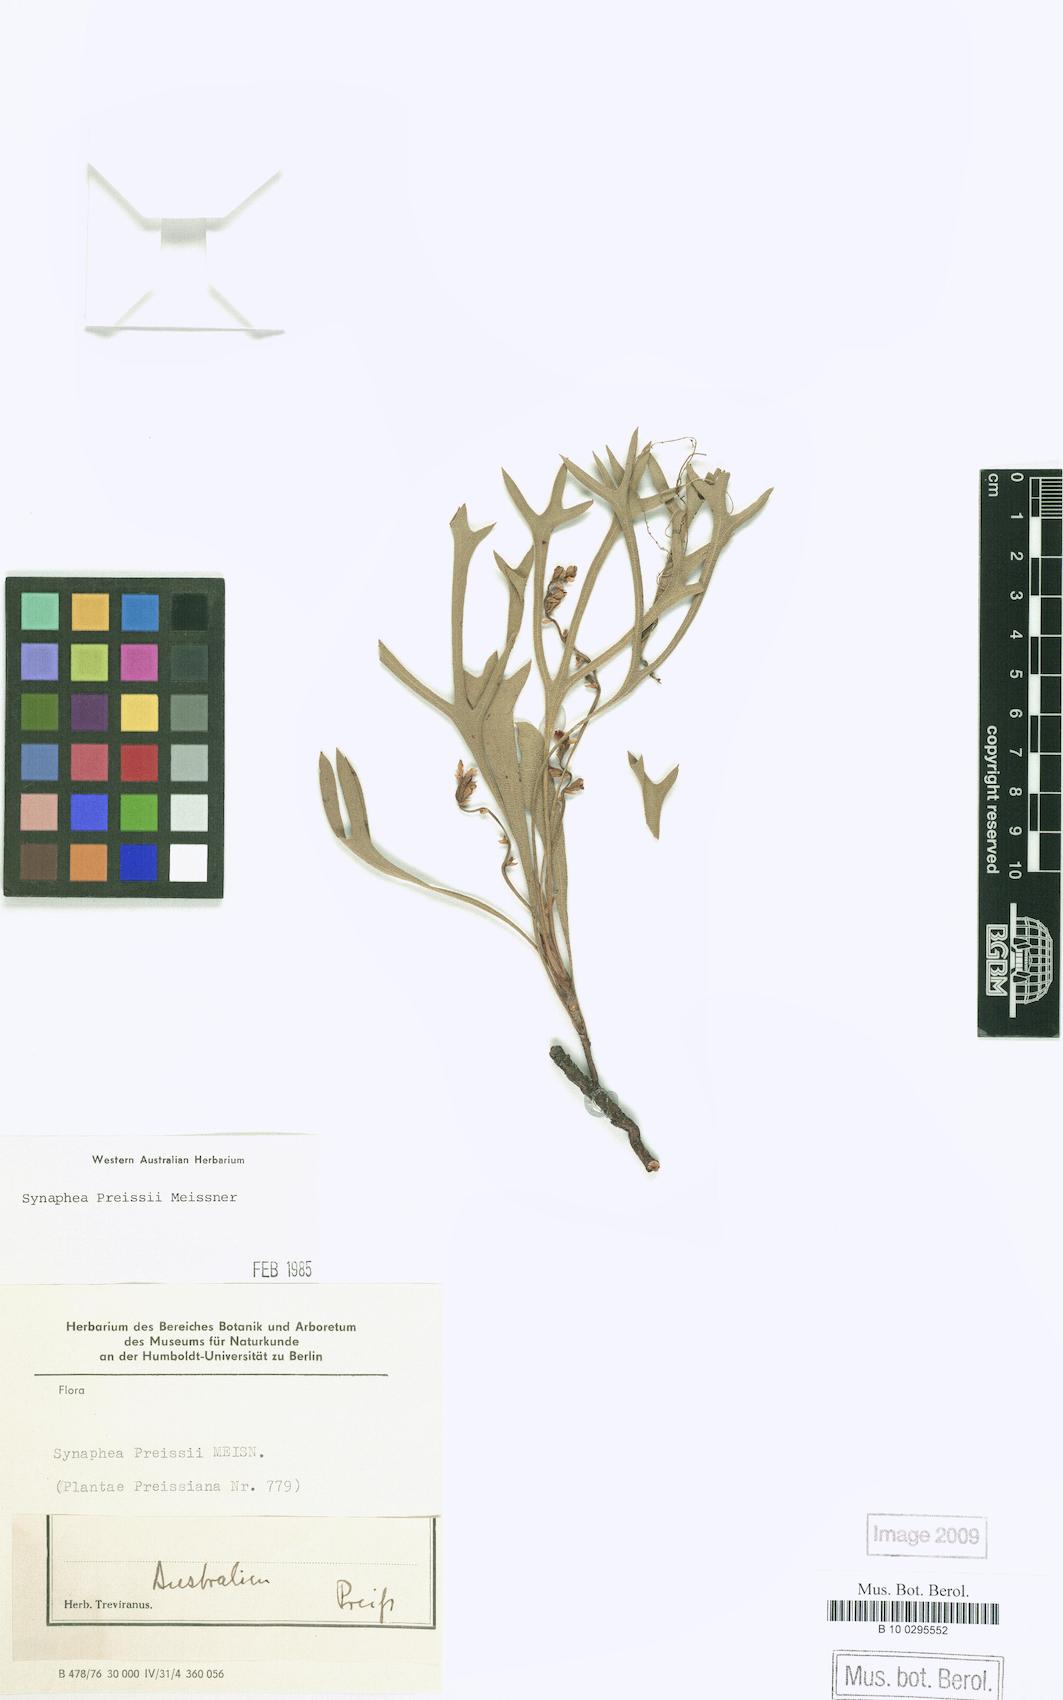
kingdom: Plantae
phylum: Tracheophyta
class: Magnoliopsida
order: Proteales
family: Proteaceae
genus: Synaphea
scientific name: Synaphea preissii
